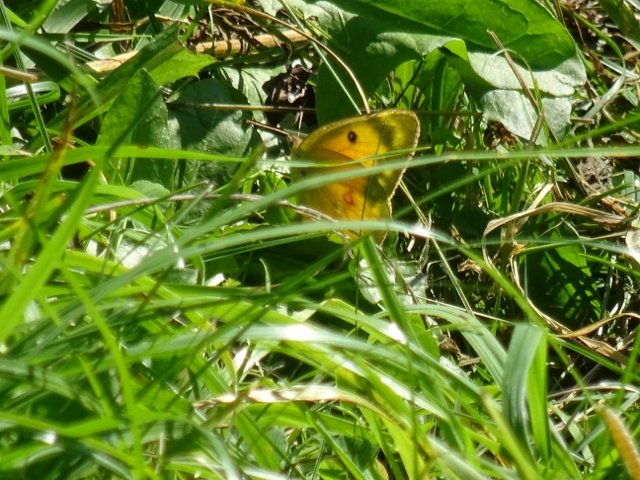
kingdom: Animalia
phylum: Arthropoda
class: Insecta
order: Lepidoptera
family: Pieridae
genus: Colias
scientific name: Colias eurytheme
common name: Orange Sulphur
